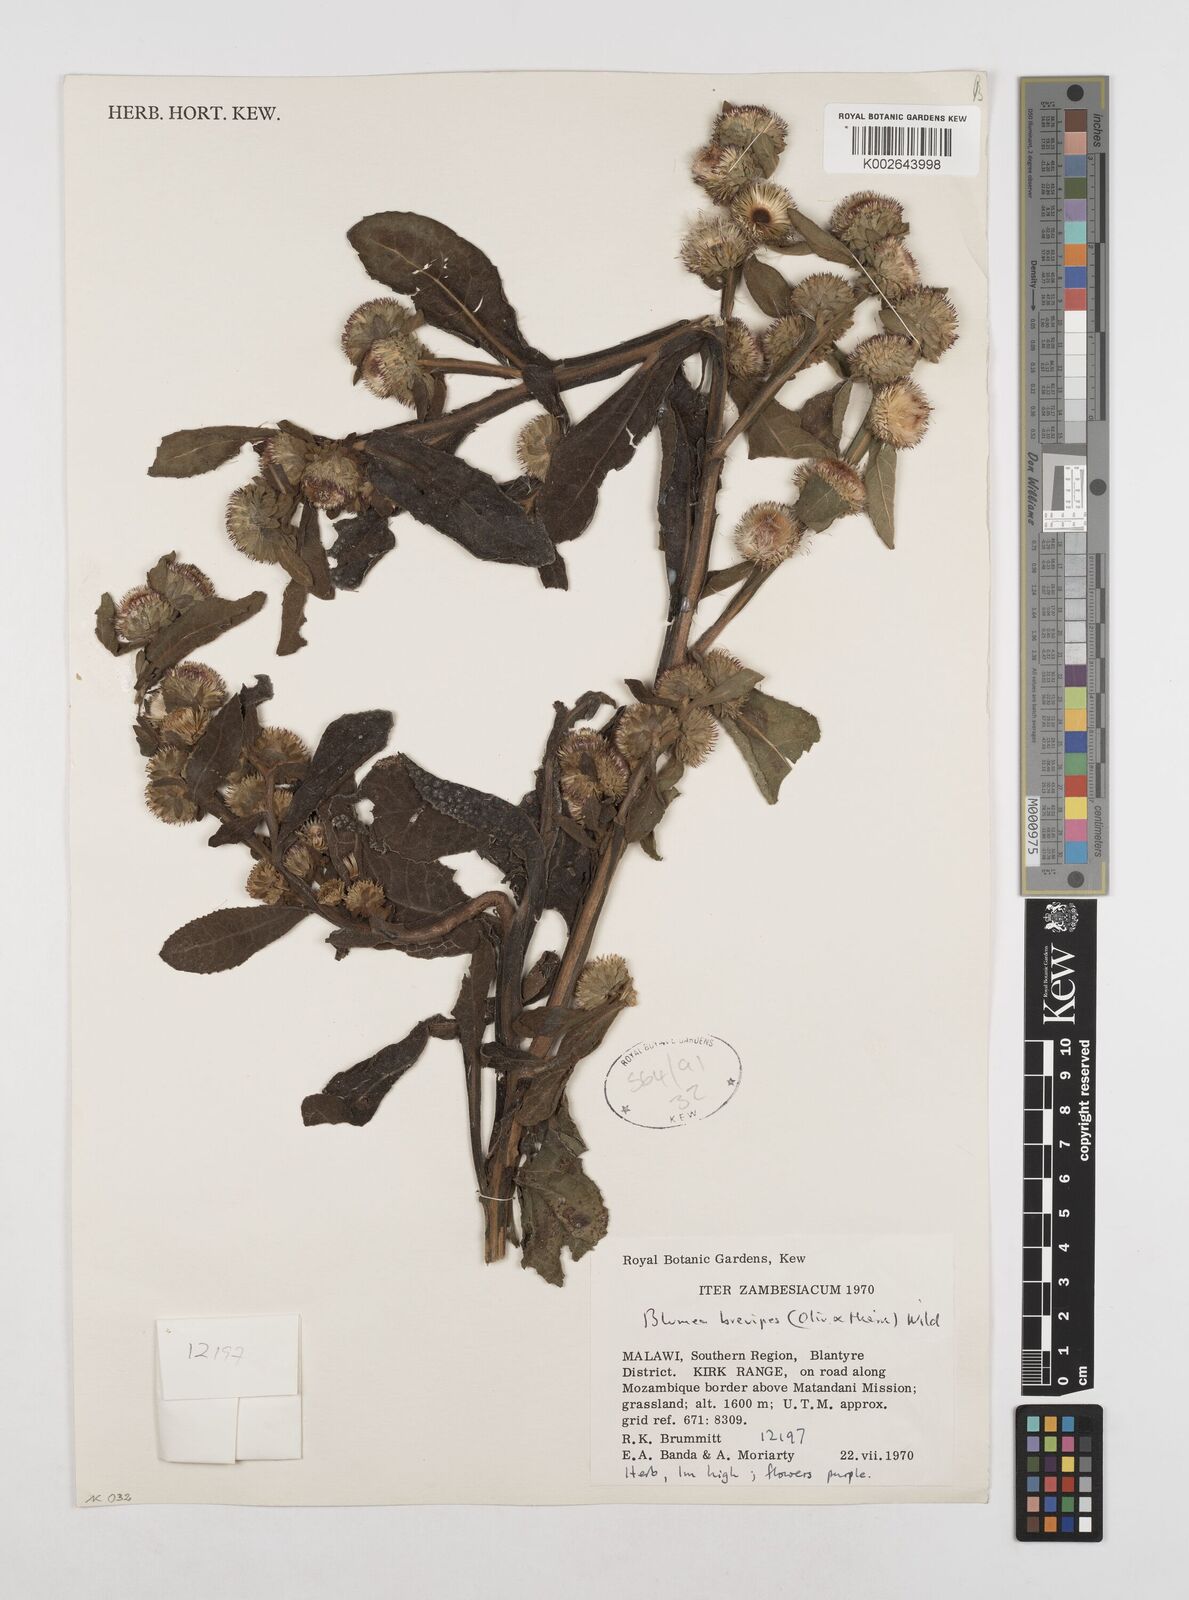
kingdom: Plantae
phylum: Tracheophyta
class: Magnoliopsida
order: Asterales
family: Asteraceae
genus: Laggera
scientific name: Laggera brevipes
